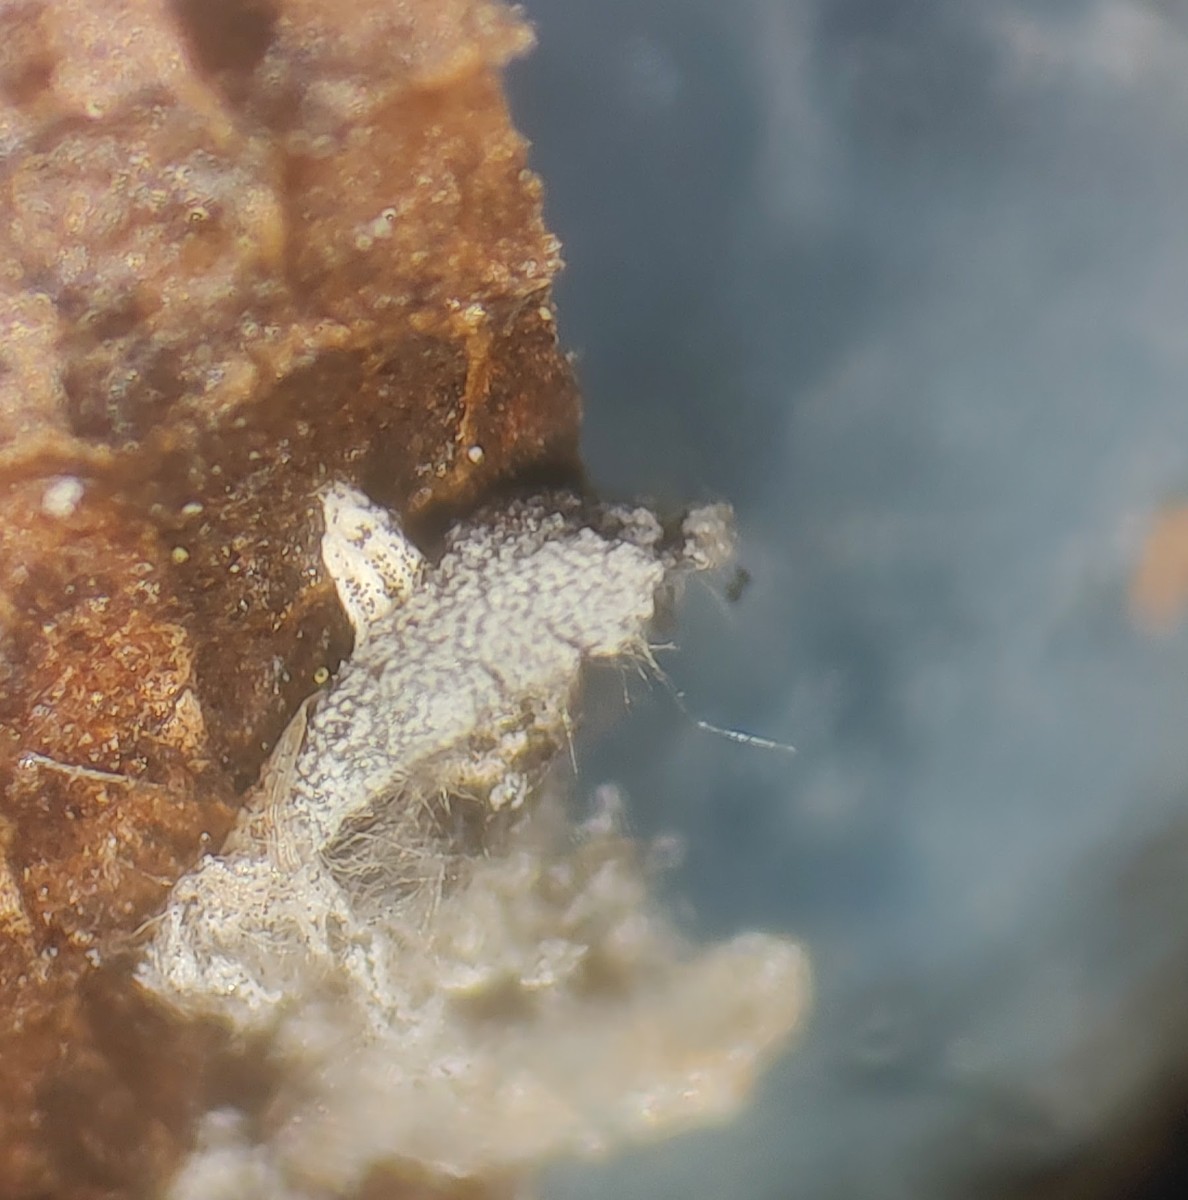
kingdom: Protozoa
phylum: Mycetozoa
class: Myxomycetes
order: Physarales
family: Didymiaceae
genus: Didymium
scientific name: Didymium squamulosum
